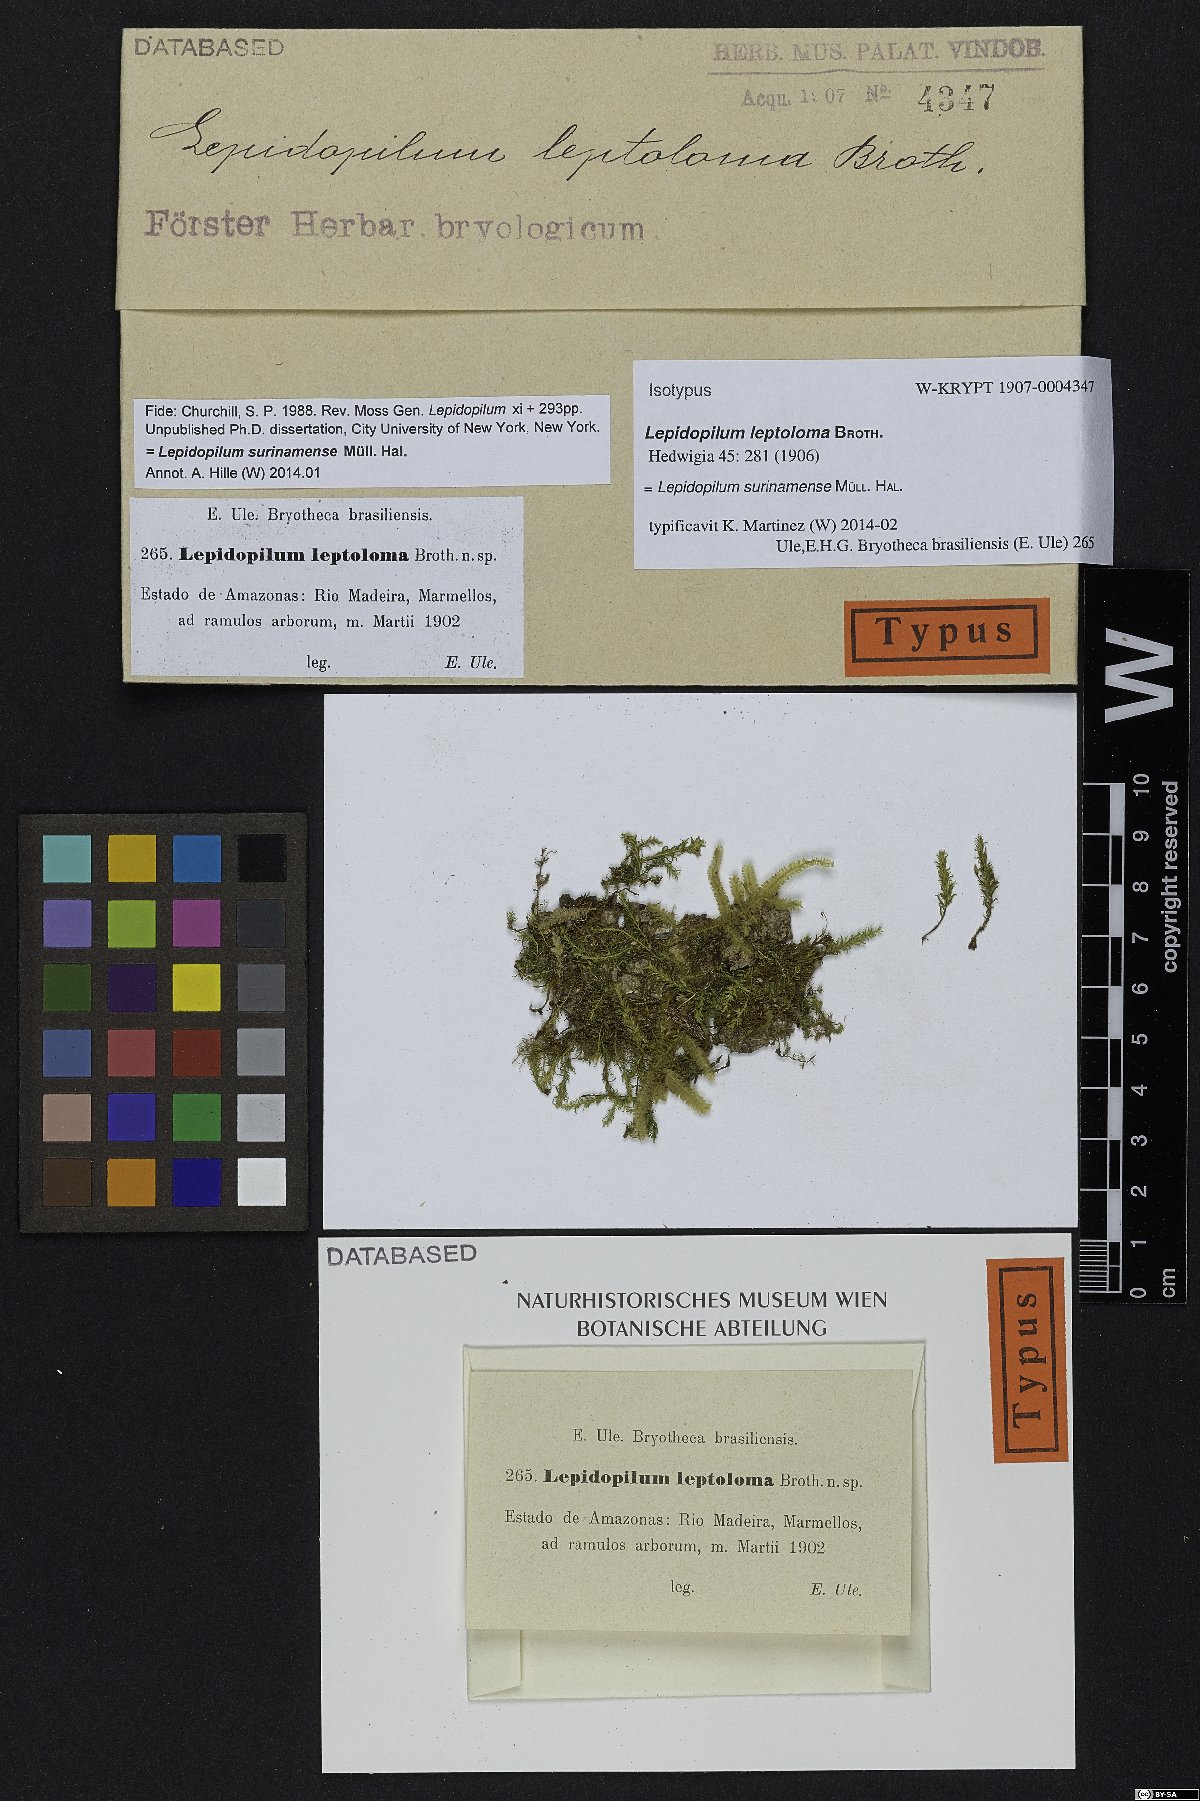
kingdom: Plantae
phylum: Bryophyta
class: Bryopsida
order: Hookeriales
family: Pilotrichaceae
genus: Lepidopilum
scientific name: Lepidopilum surinamense
